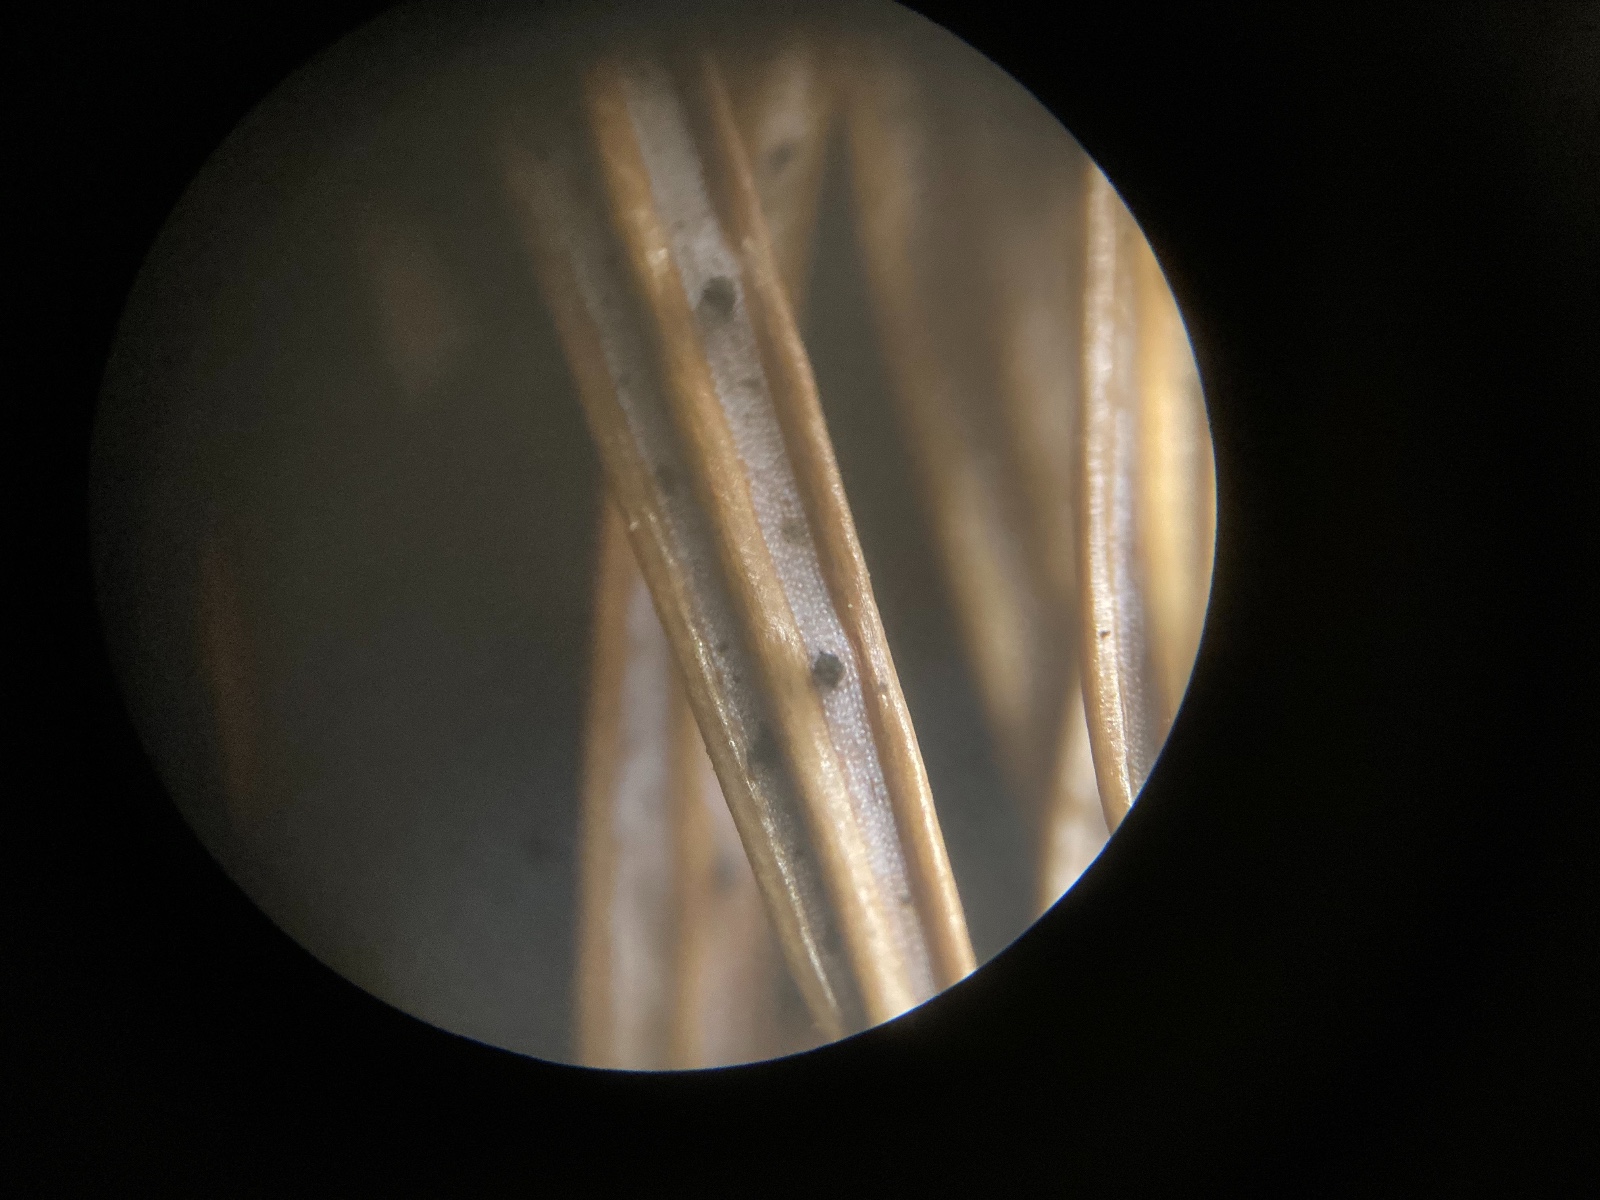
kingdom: Fungi
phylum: Ascomycota
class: Sordariomycetes
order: Diaporthales
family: Valsaceae
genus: Cytospora
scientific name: Cytospora pinastri
